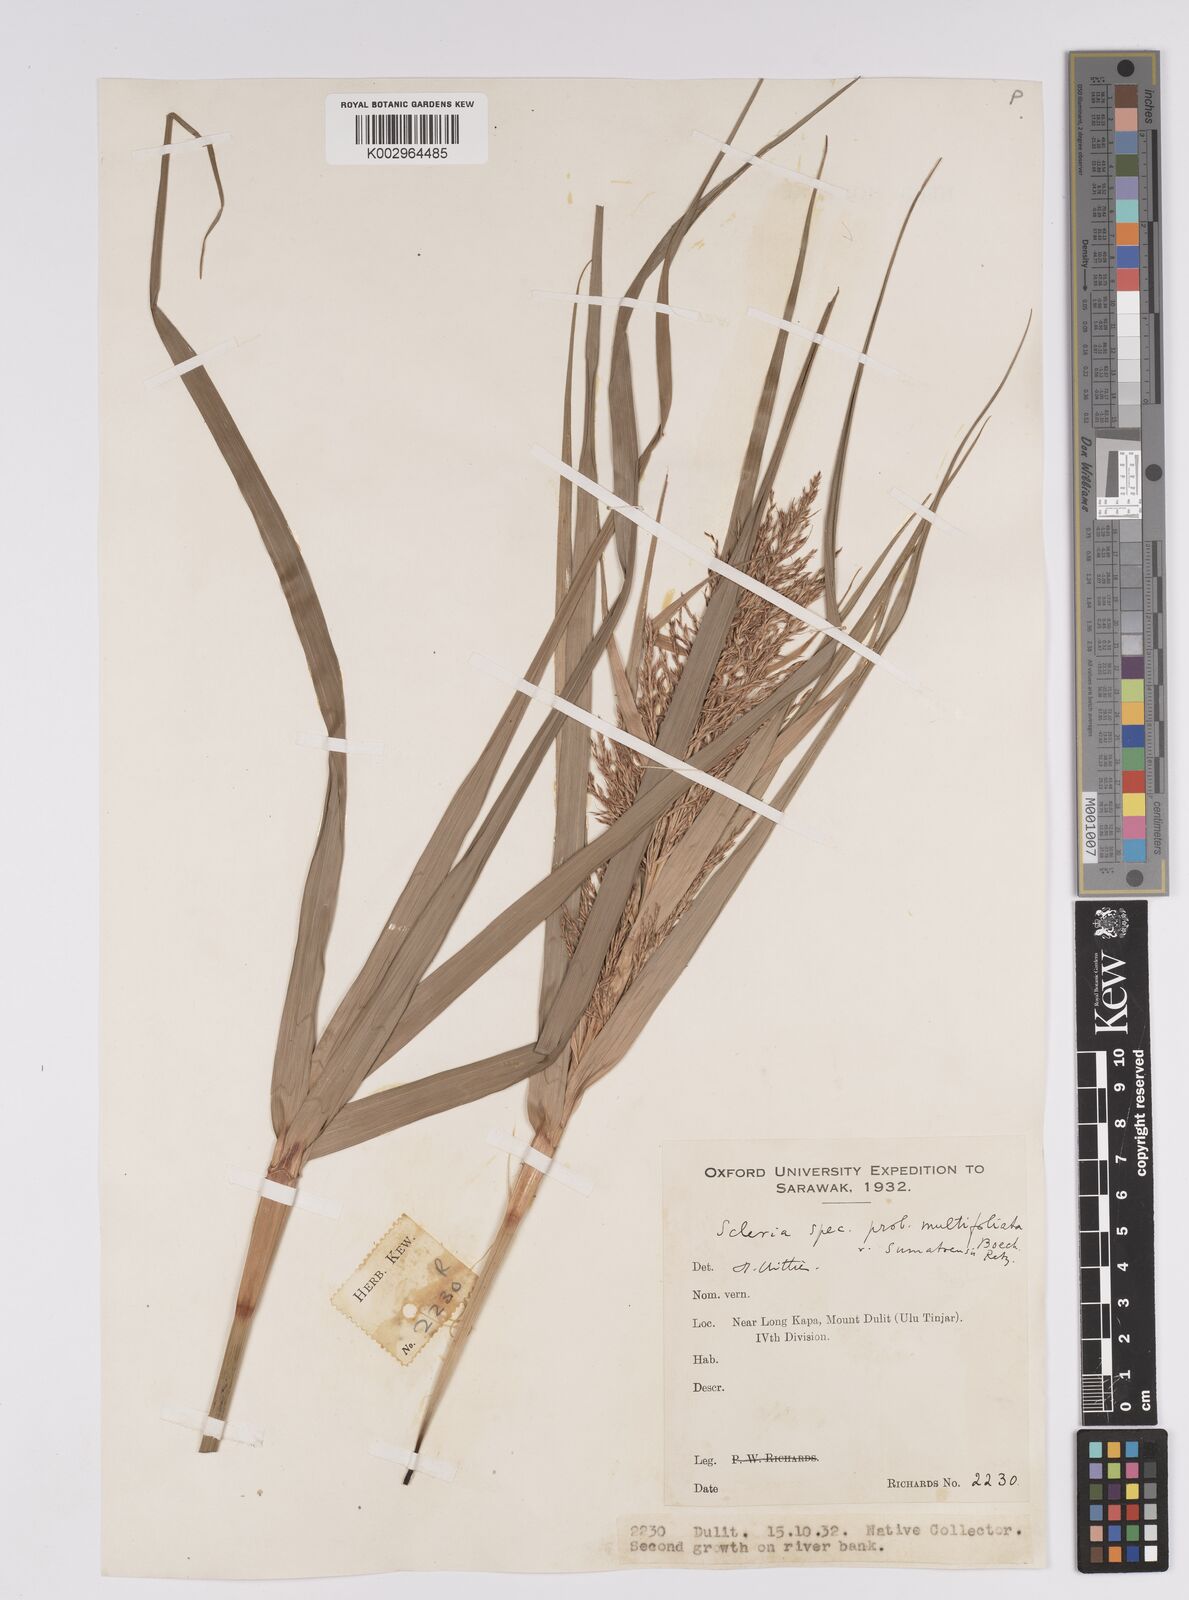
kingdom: Plantae
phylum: Tracheophyta
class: Liliopsida
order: Poales
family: Cyperaceae
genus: Scleria
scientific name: Scleria sumatrensis
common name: Sumatran scleria
